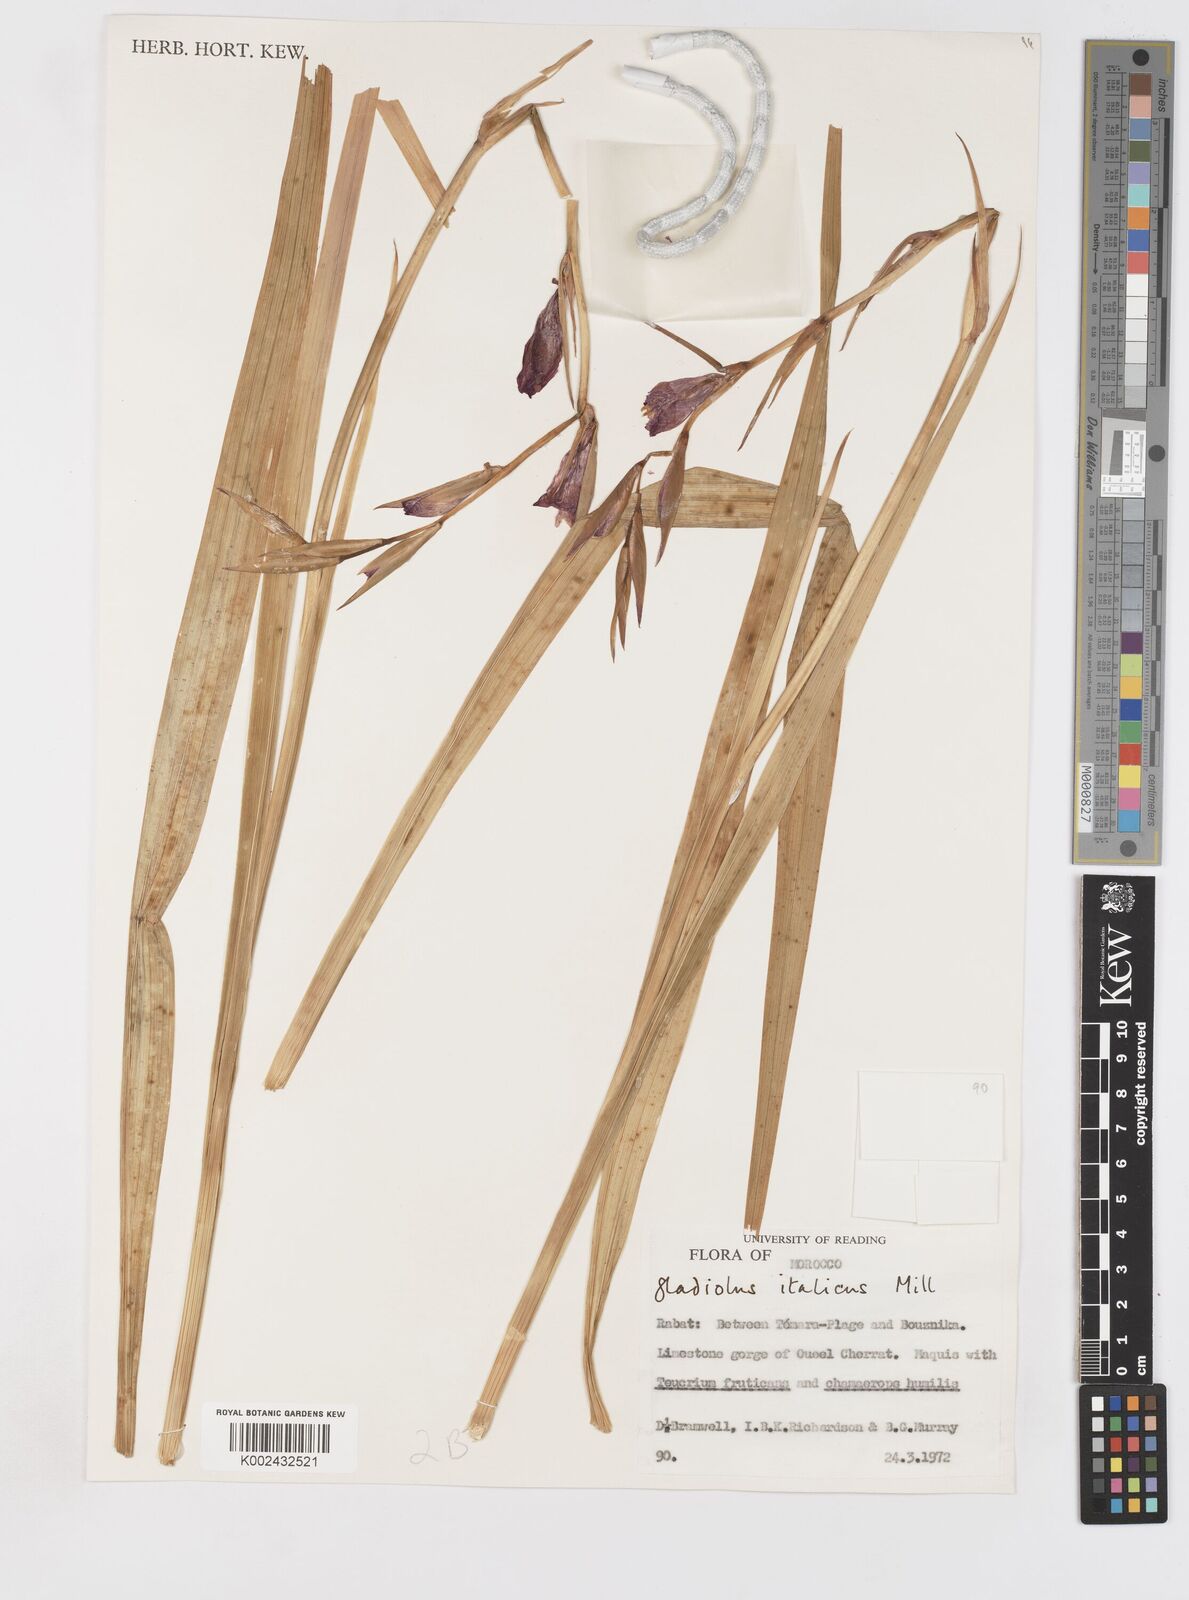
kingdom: Plantae
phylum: Tracheophyta
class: Liliopsida
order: Asparagales
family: Iridaceae
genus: Gladiolus
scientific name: Gladiolus italicus
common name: Field gladiolus
